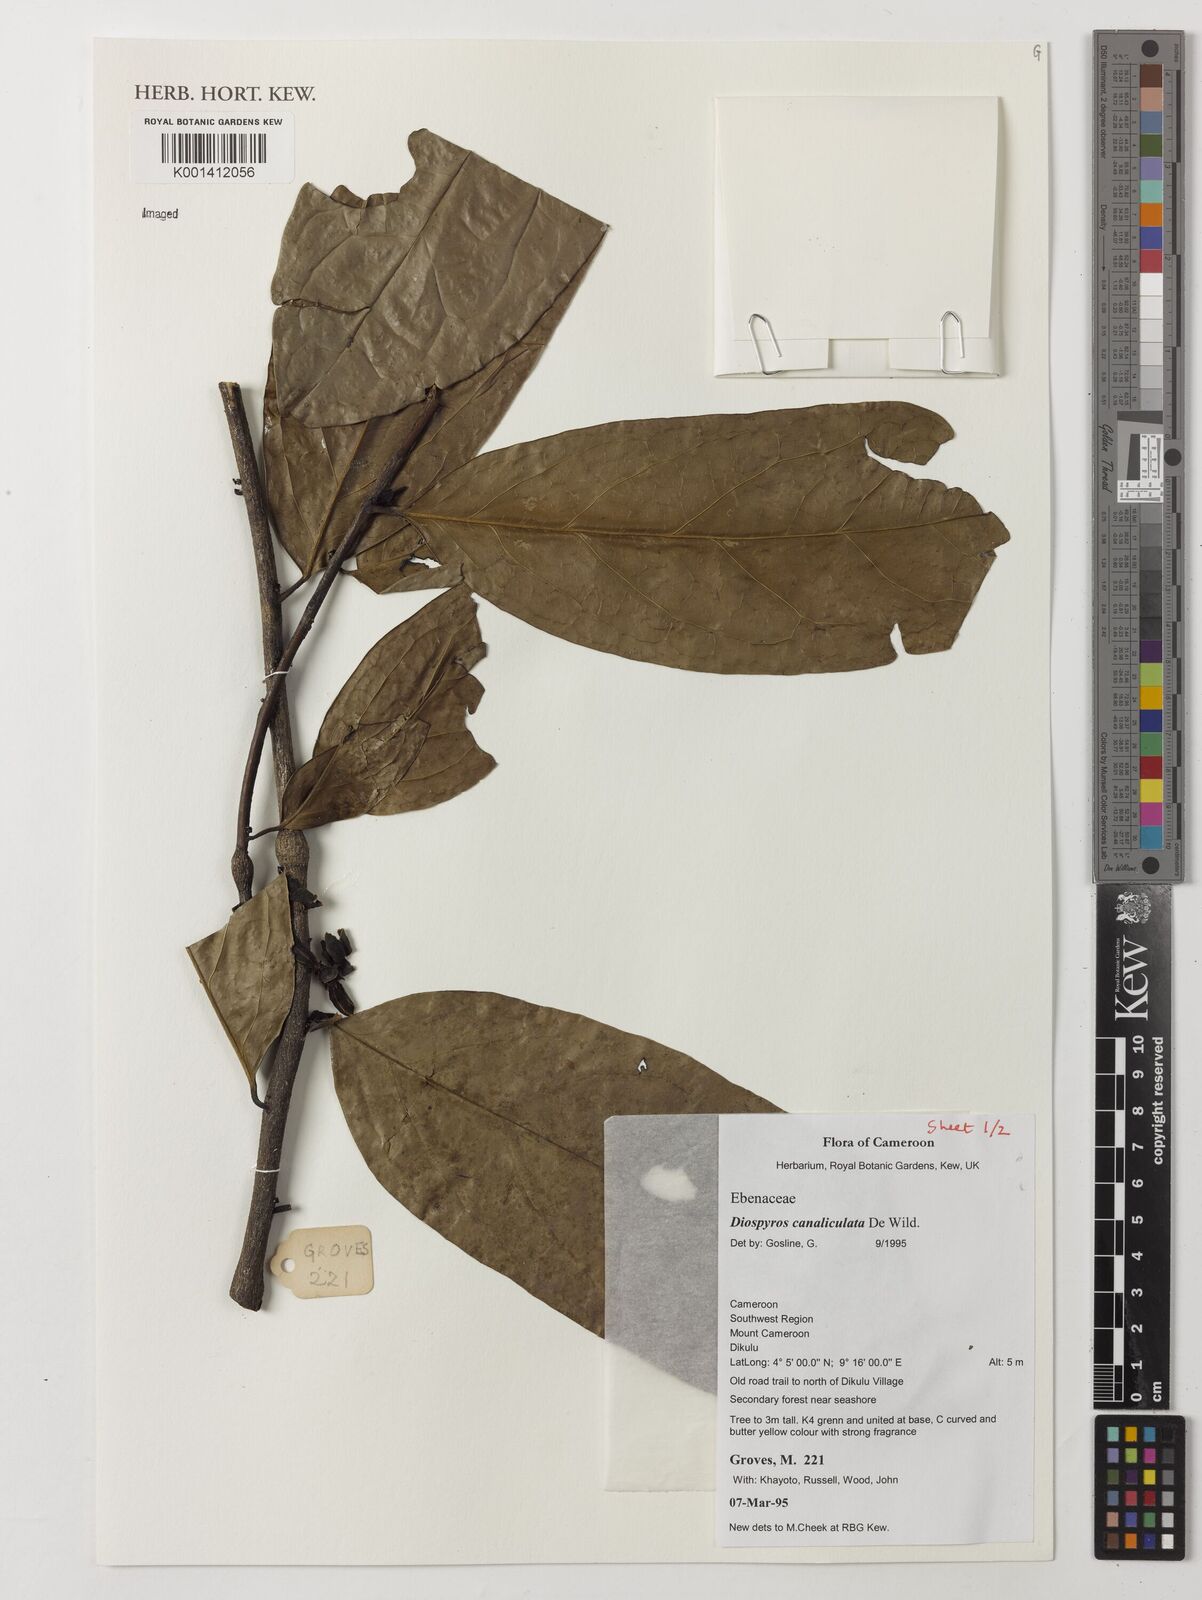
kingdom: Plantae
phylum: Tracheophyta
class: Magnoliopsida
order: Ericales
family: Ebenaceae
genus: Diospyros
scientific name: Diospyros canaliculata
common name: Flint bark
